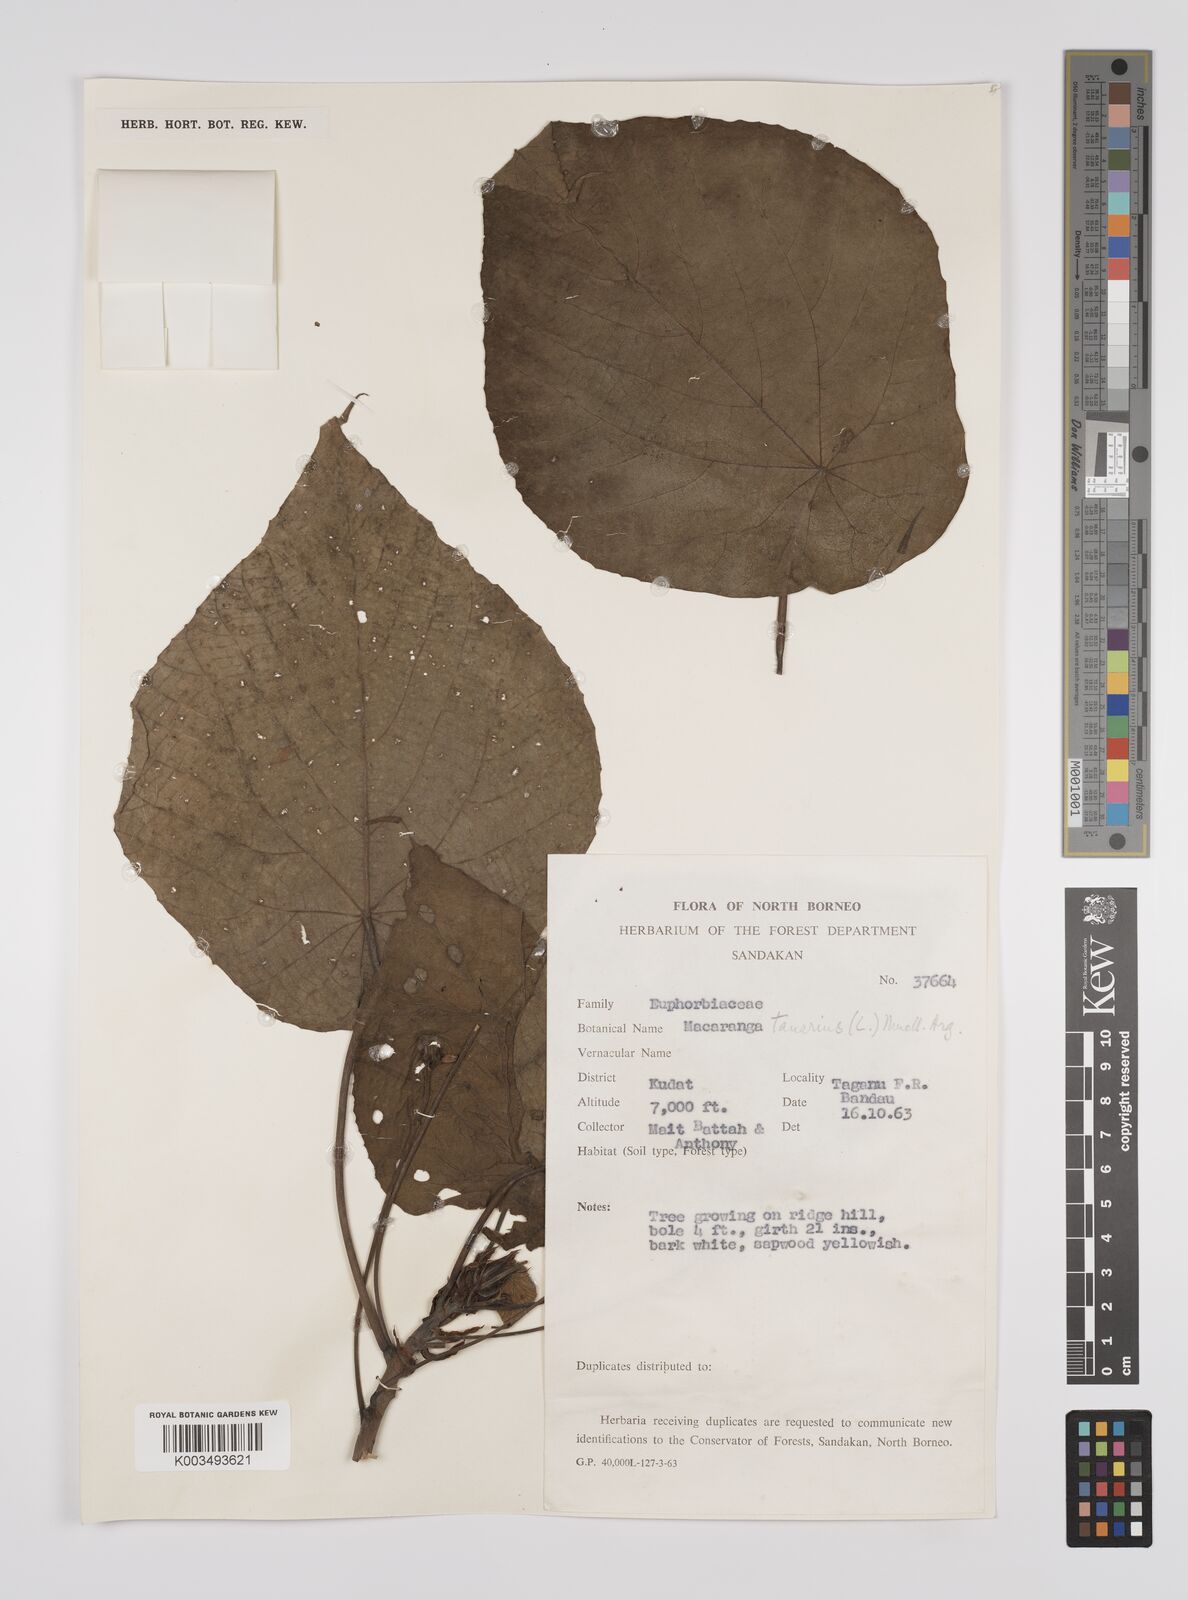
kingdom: Plantae
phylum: Tracheophyta
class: Magnoliopsida
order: Malpighiales
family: Euphorbiaceae
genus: Macaranga
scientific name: Macaranga tanarius
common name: Parasol leaf tree
